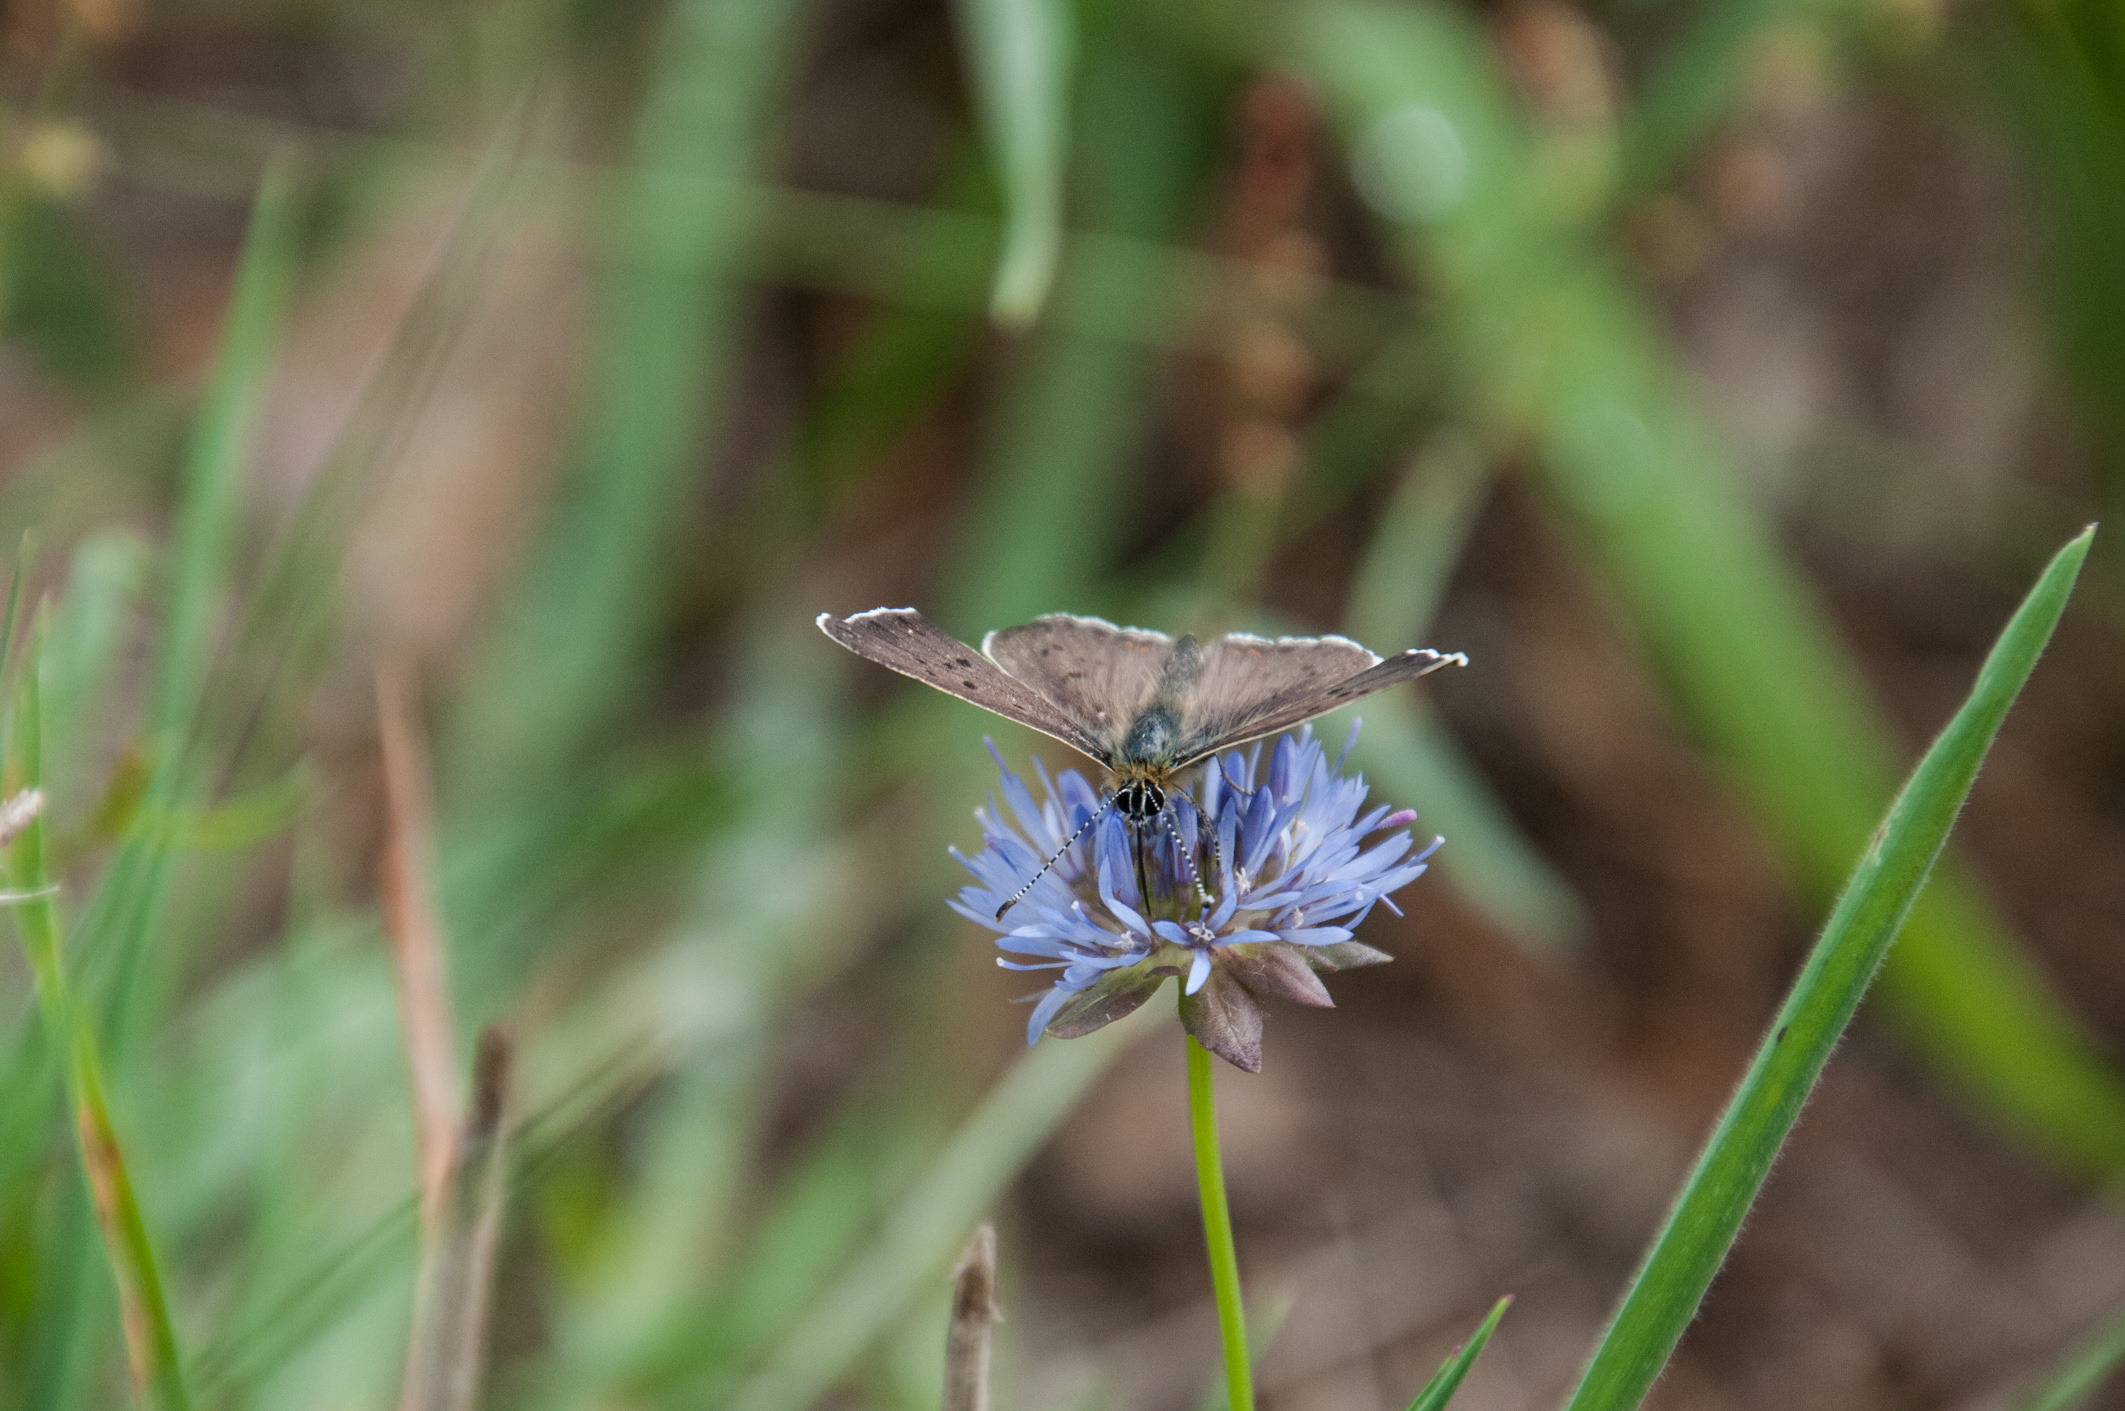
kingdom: Animalia
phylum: Arthropoda
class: Insecta
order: Lepidoptera
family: Lycaenidae
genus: Loweia
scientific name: Loweia tityrus
